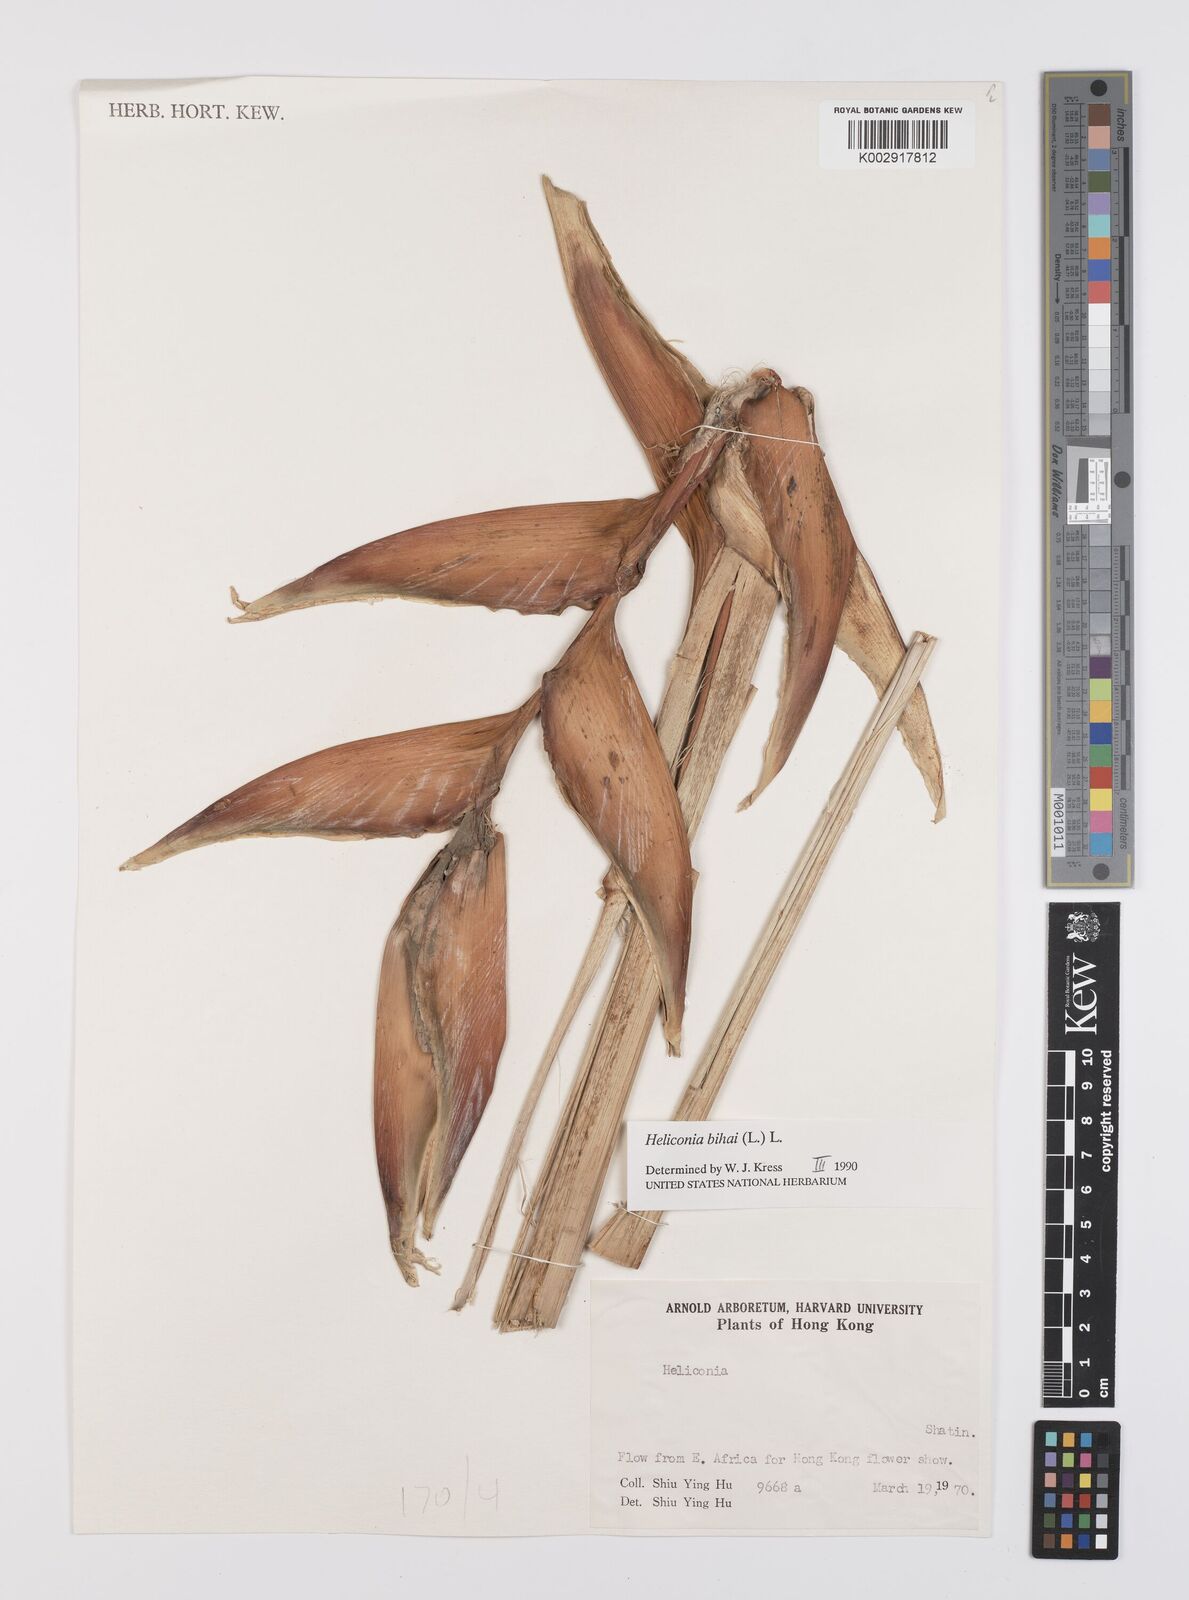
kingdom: Plantae
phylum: Tracheophyta
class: Liliopsida
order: Zingiberales
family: Heliconiaceae
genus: Heliconia
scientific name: Heliconia bihai
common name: Macaw flower
